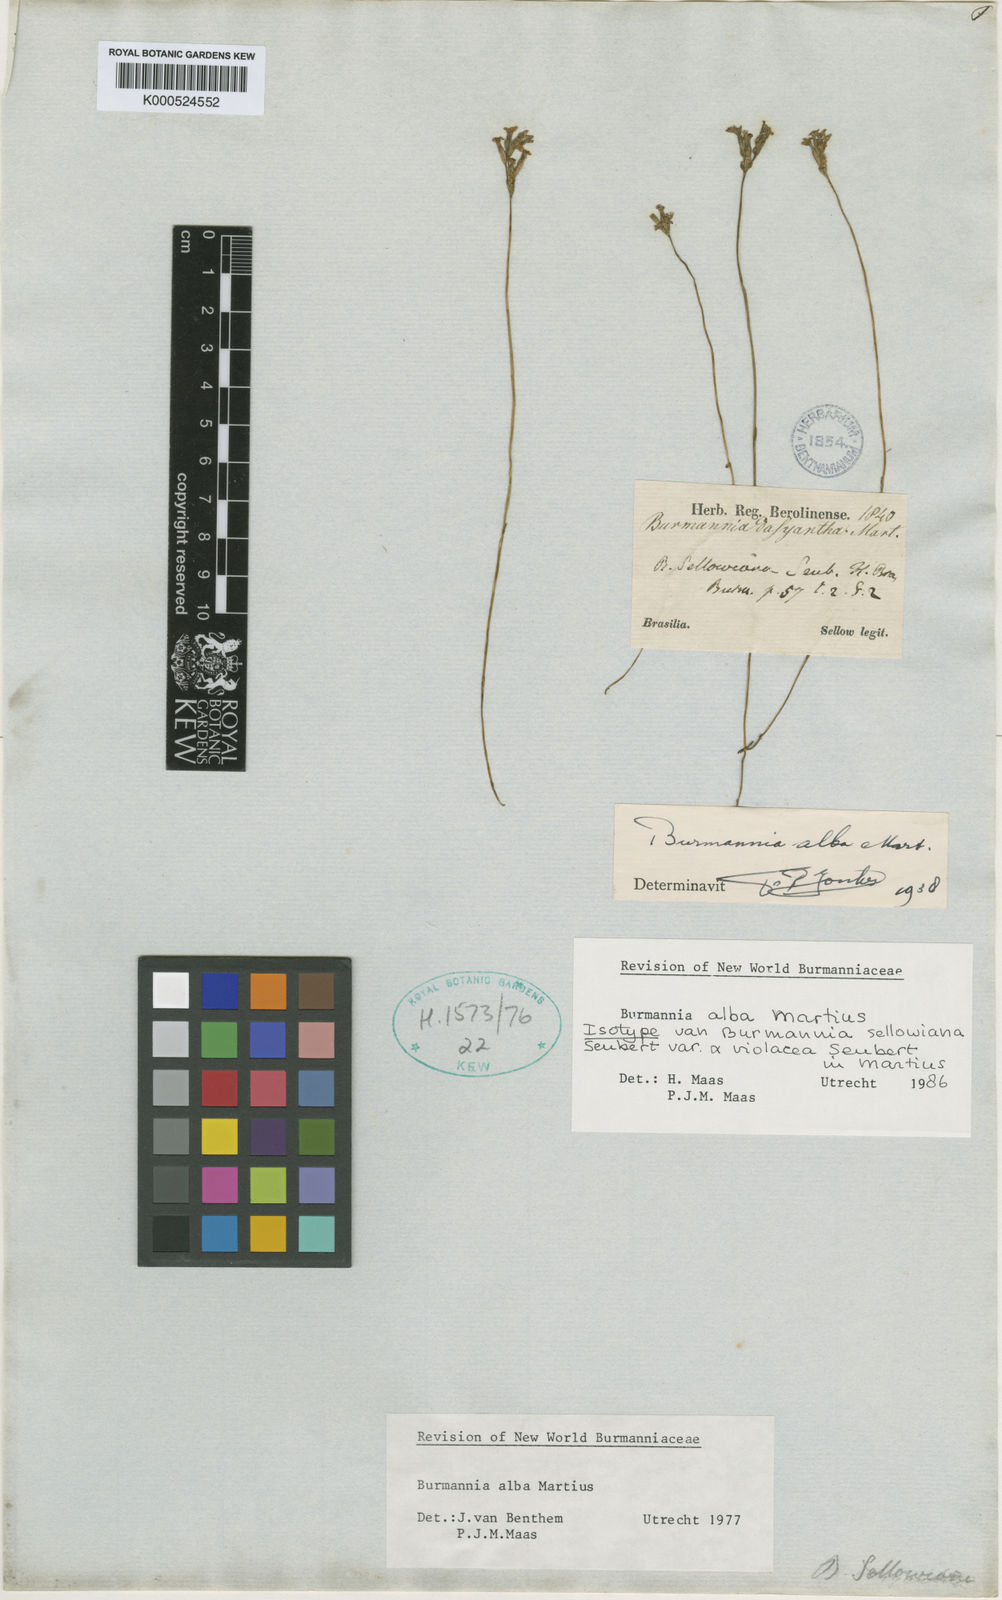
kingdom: Plantae
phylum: Tracheophyta
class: Liliopsida
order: Dioscoreales
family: Burmanniaceae
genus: Burmannia
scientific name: Burmannia alba
